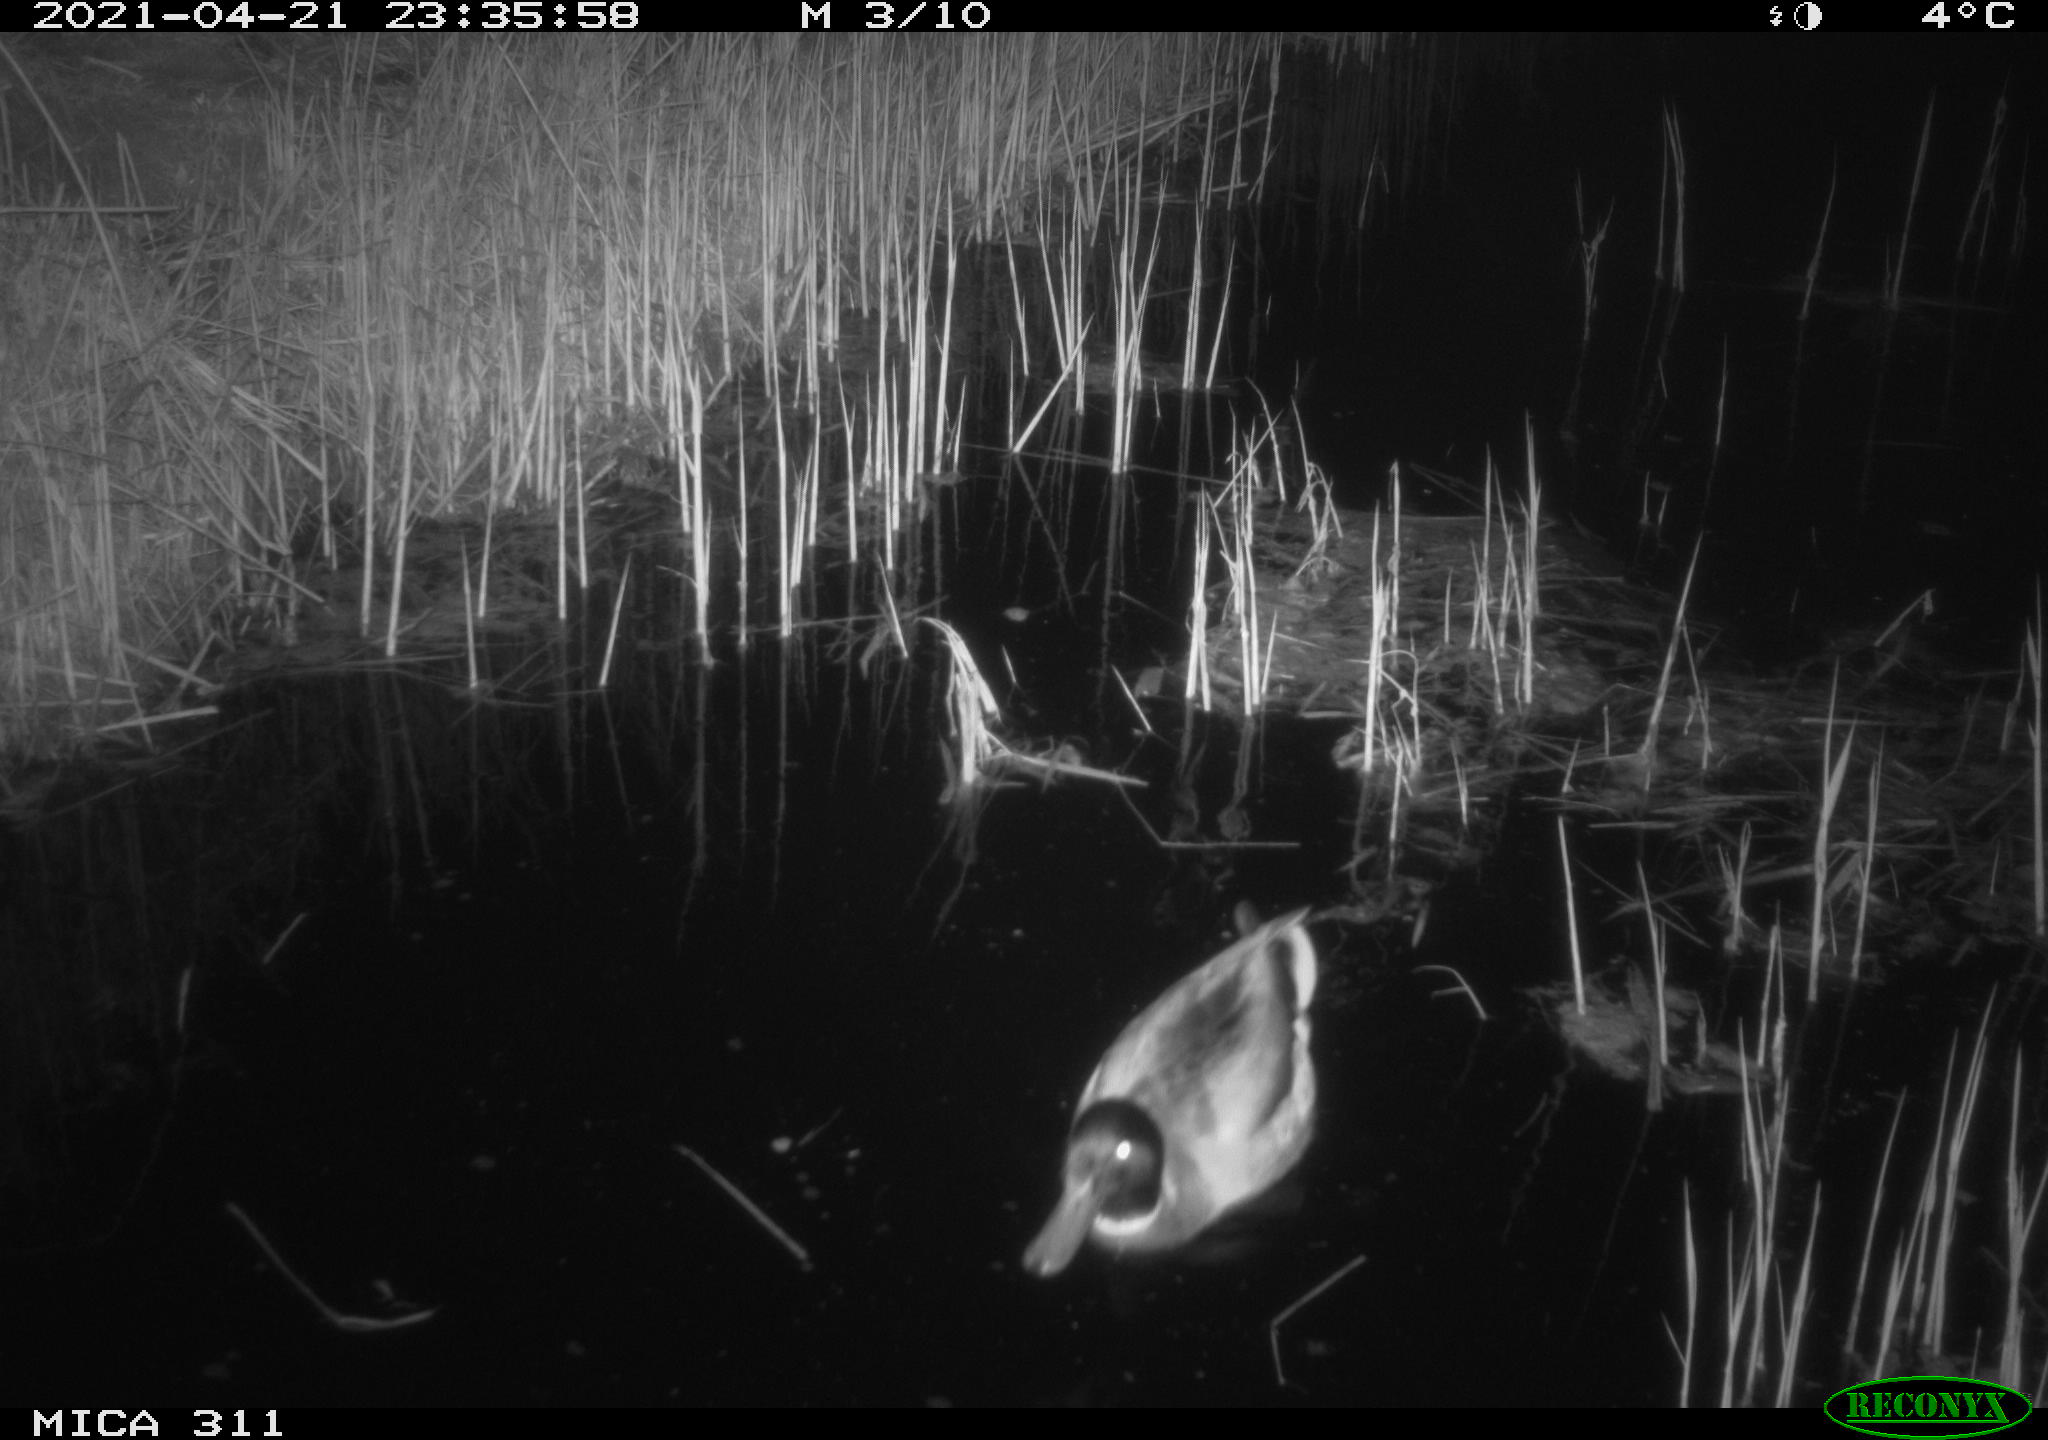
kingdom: Animalia
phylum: Chordata
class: Aves
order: Anseriformes
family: Anatidae
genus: Anas
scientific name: Anas platyrhynchos
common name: Mallard
